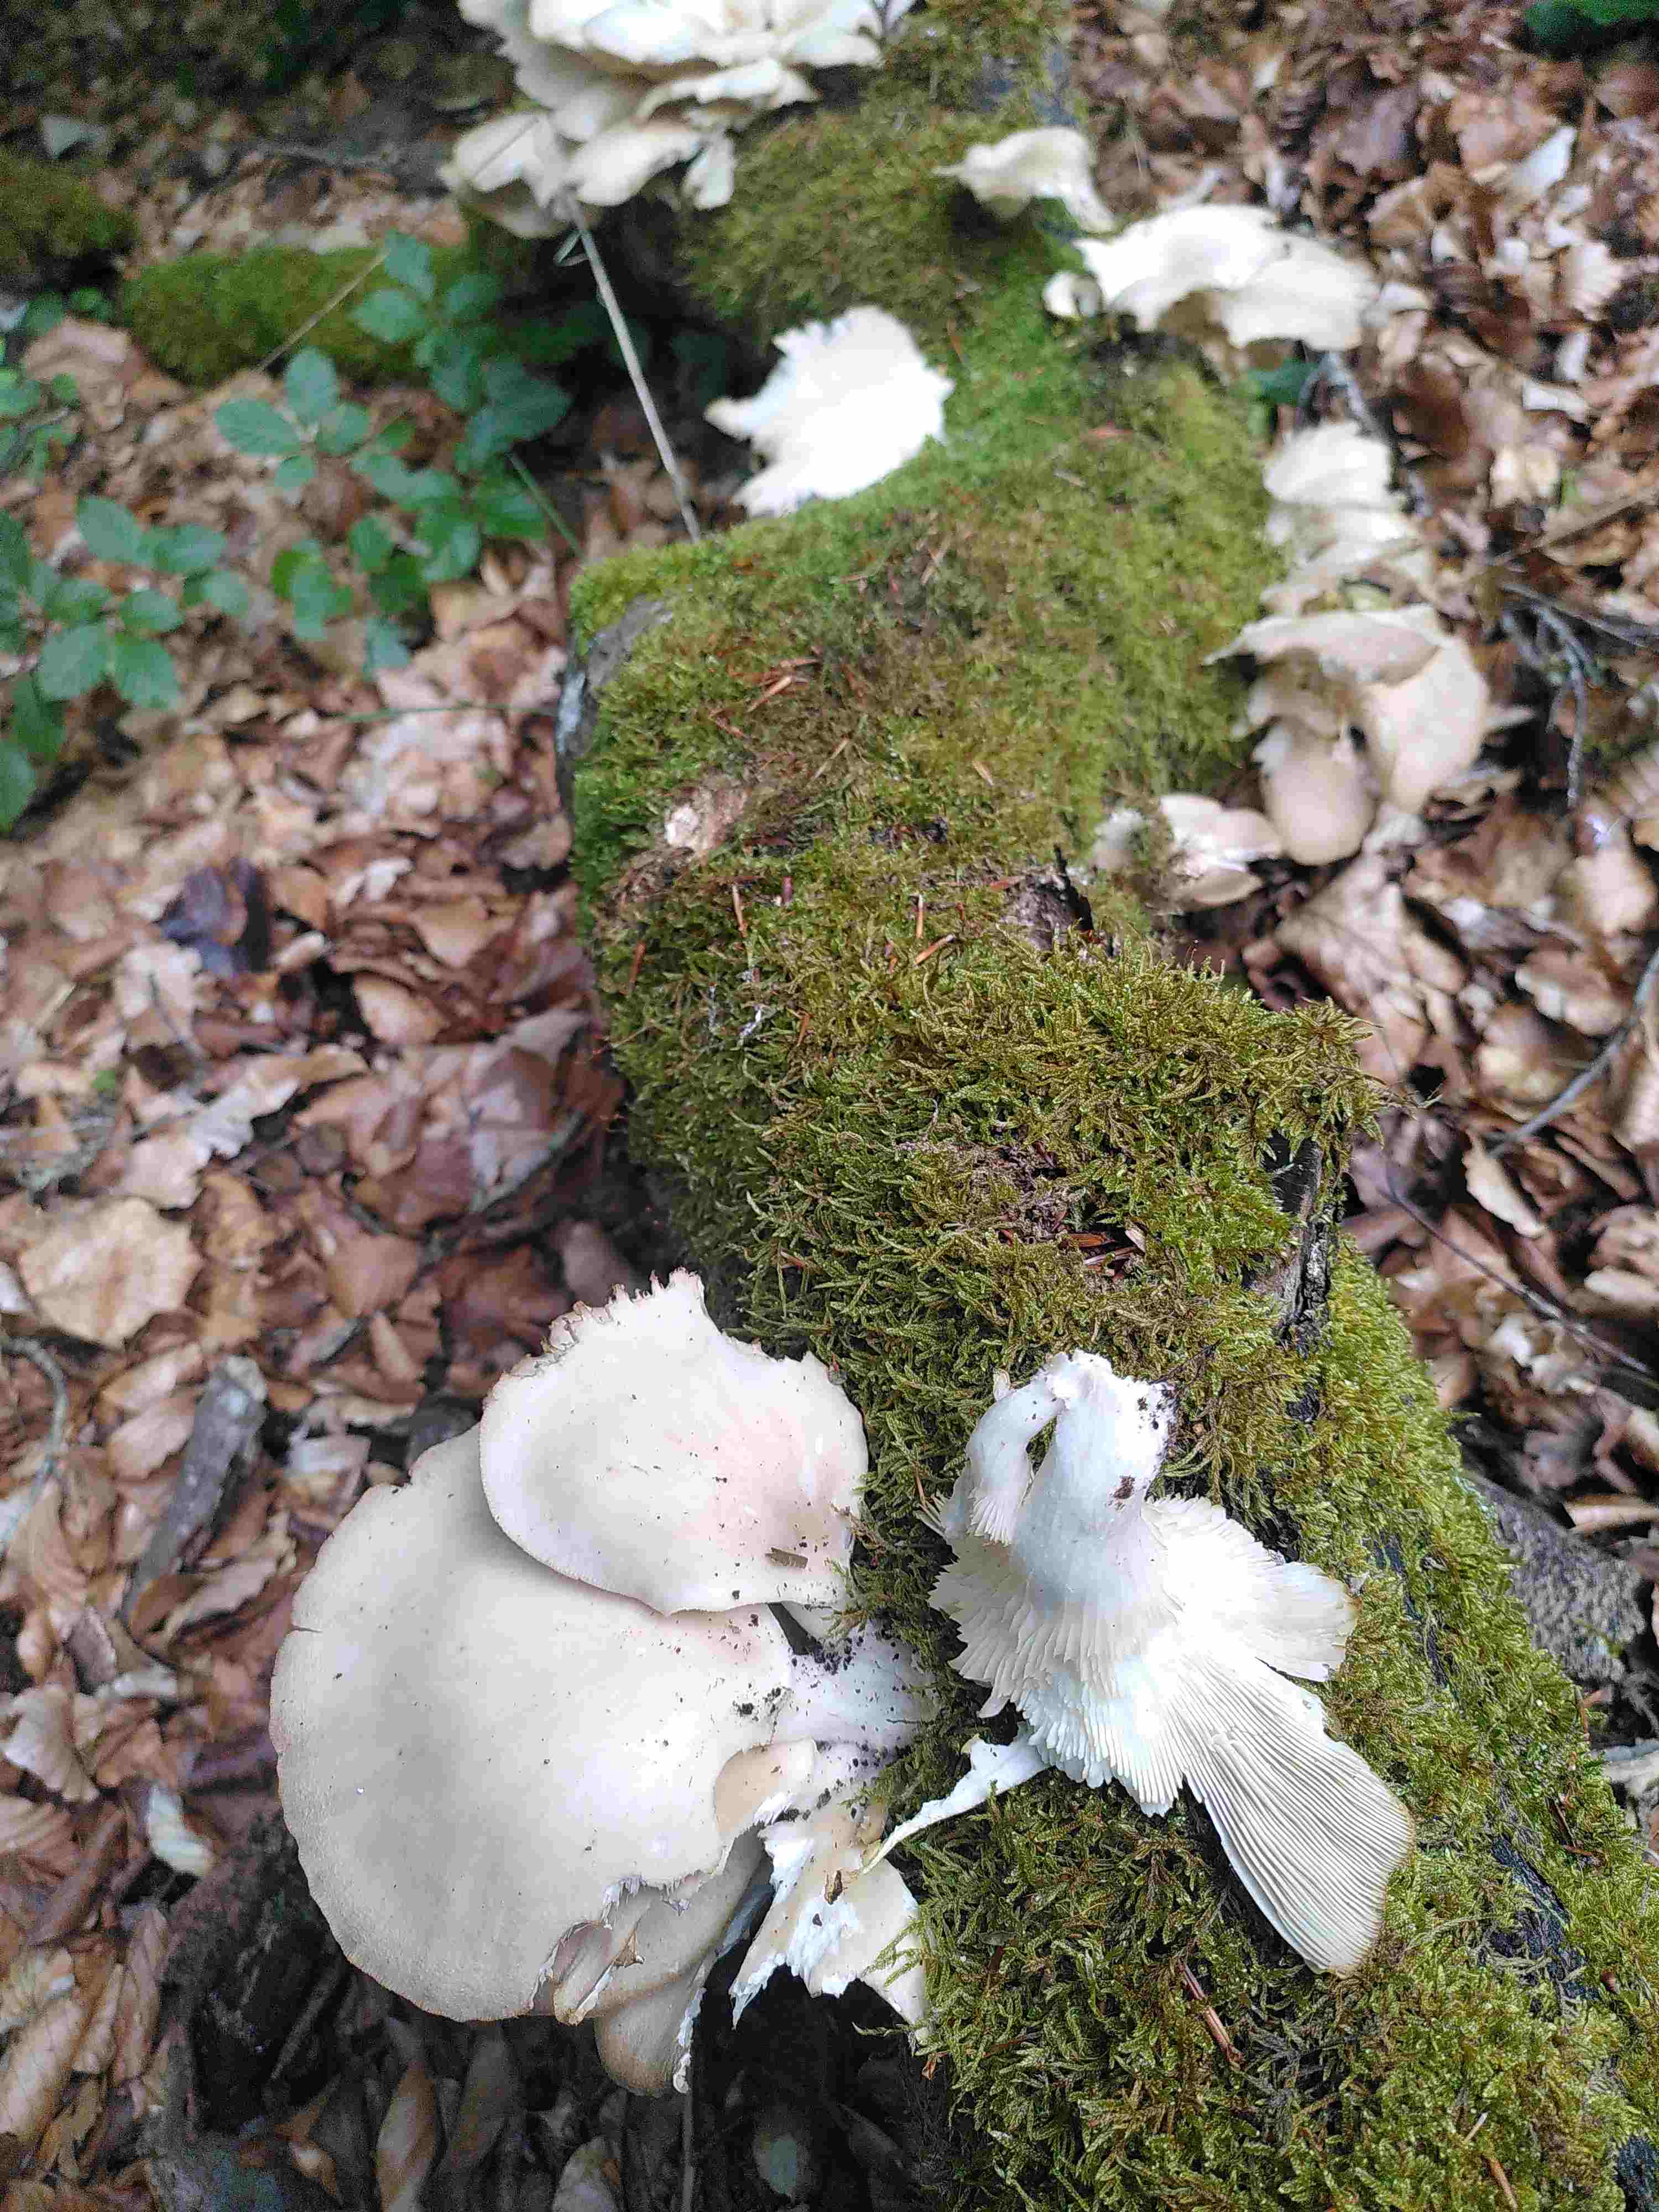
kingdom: Fungi
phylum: Basidiomycota
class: Agaricomycetes
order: Agaricales
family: Pleurotaceae
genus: Pleurotus
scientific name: Pleurotus pulmonarius
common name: sommer-østershat
